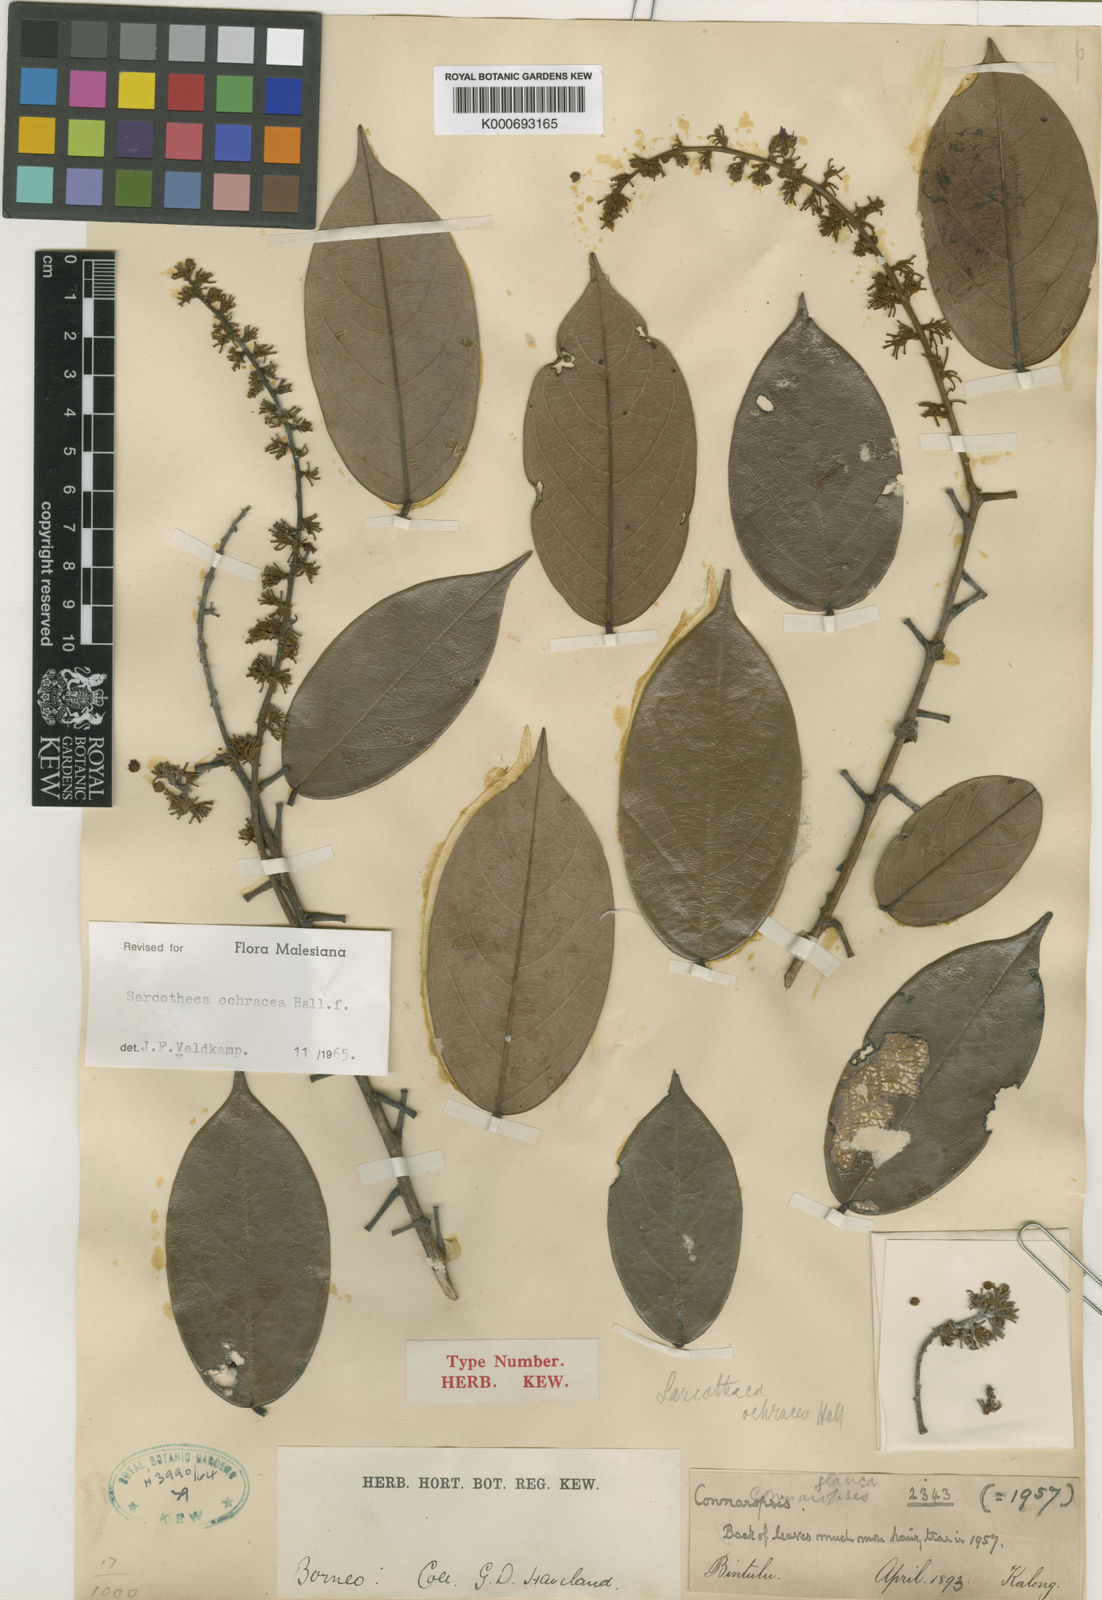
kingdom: Plantae
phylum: Tracheophyta
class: Magnoliopsida
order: Oxalidales
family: Oxalidaceae
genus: Sarcotheca
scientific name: Sarcotheca ochracea
